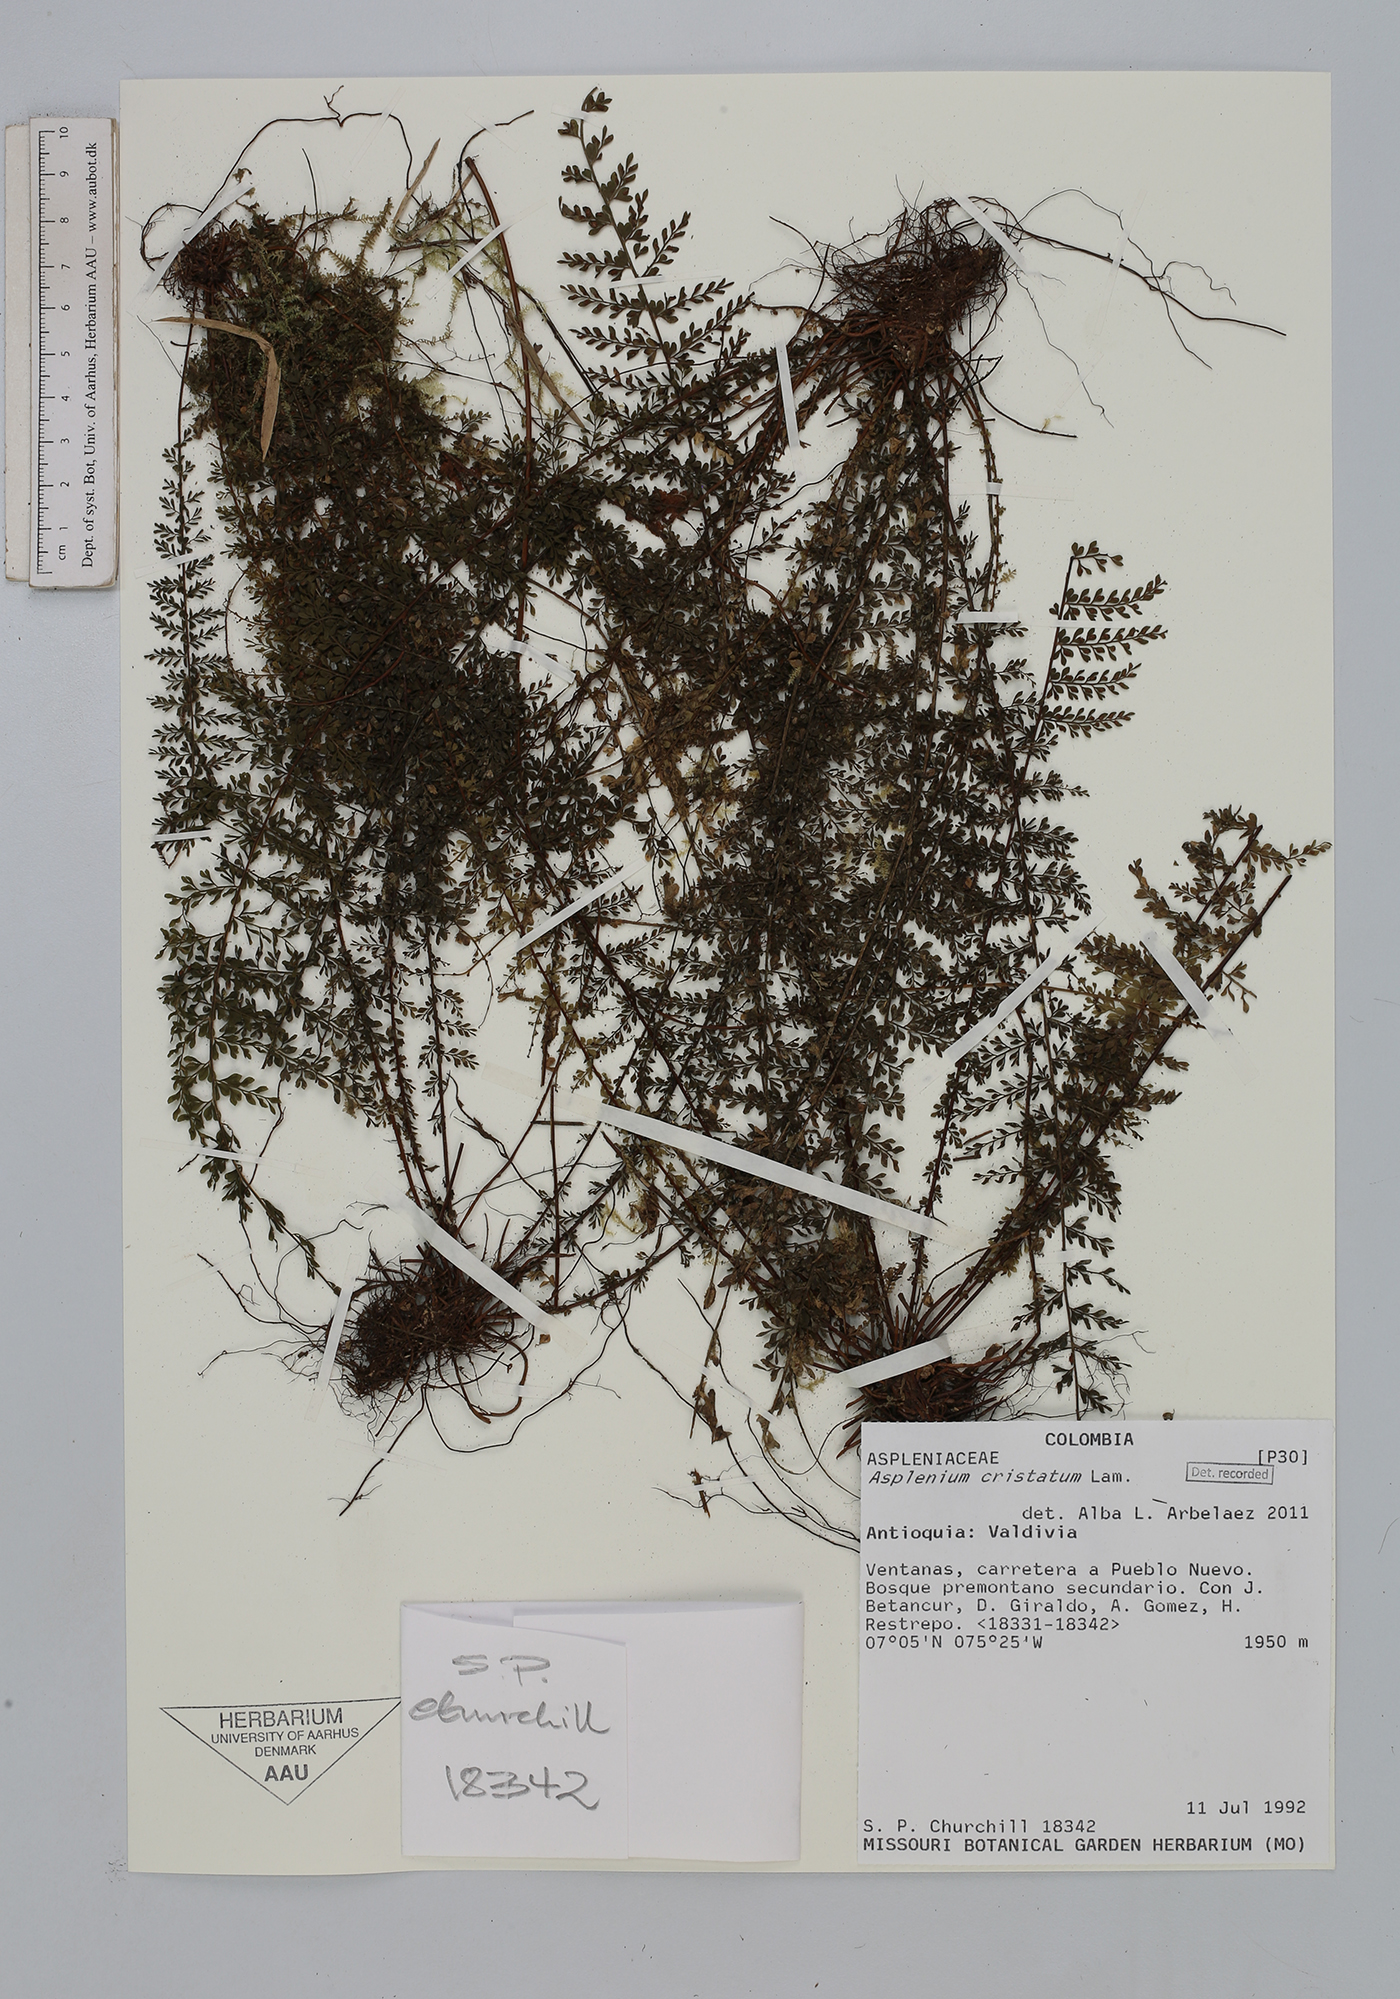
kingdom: Plantae
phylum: Tracheophyta
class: Polypodiopsida
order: Polypodiales
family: Aspleniaceae
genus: Asplenium
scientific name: Asplenium cristatum
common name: Parsley spleenwort
